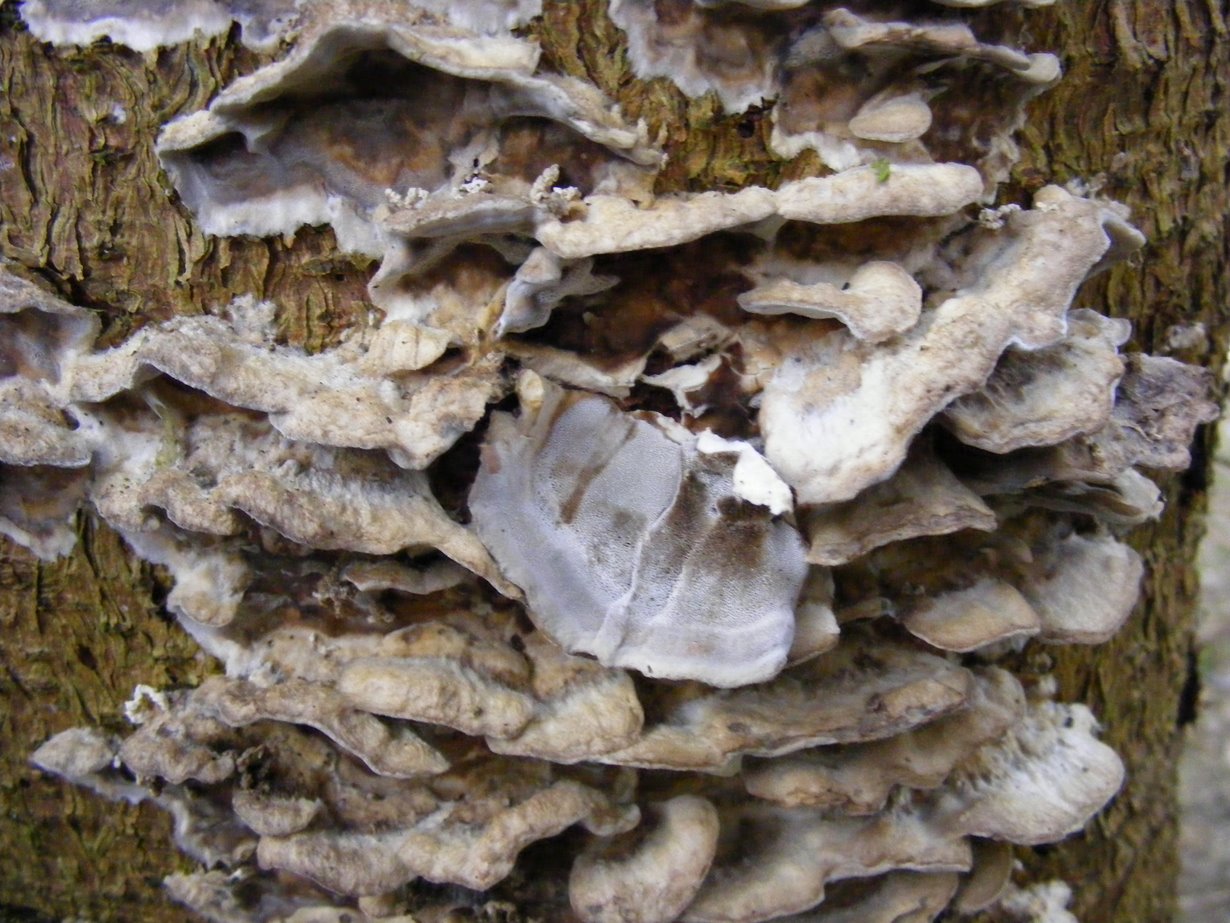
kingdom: Fungi
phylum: Basidiomycota
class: Agaricomycetes
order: Polyporales
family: Phanerochaetaceae
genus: Bjerkandera
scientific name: Bjerkandera adusta
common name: sveden sodporesvamp
